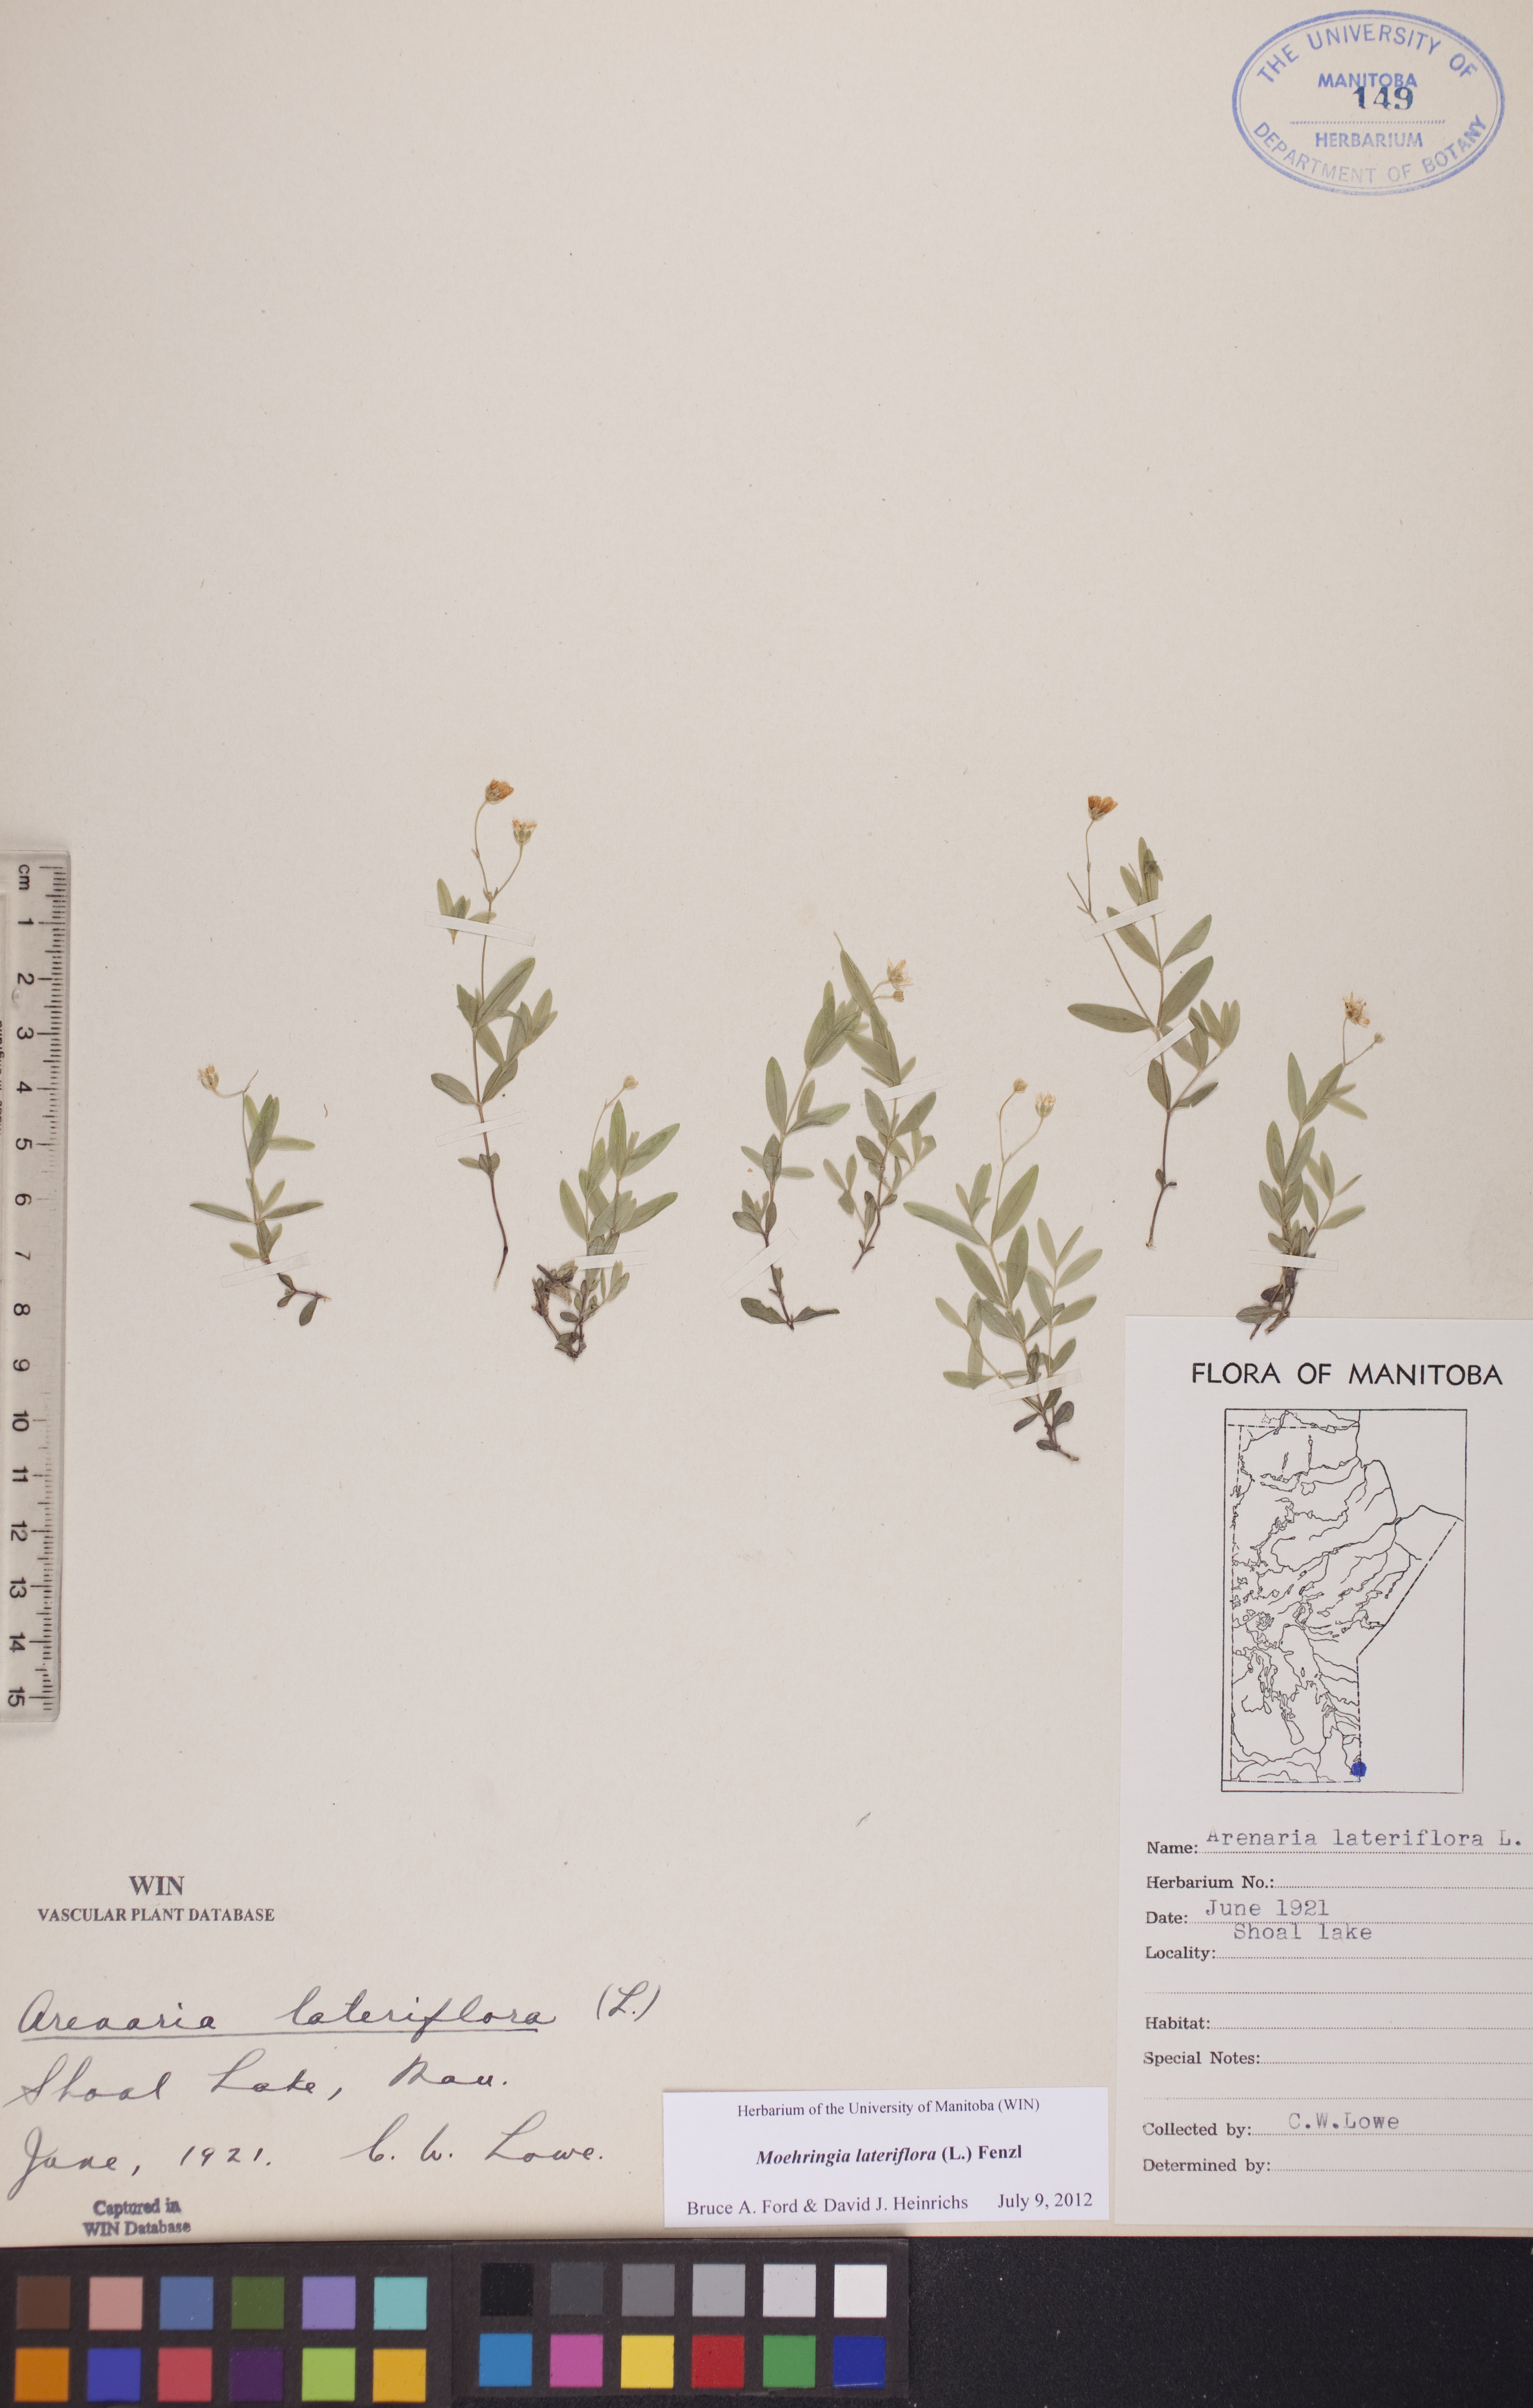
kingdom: Plantae
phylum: Tracheophyta
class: Magnoliopsida
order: Caryophyllales
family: Caryophyllaceae
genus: Moehringia
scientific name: Moehringia lateriflora
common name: Blunt-leaved sandwort
